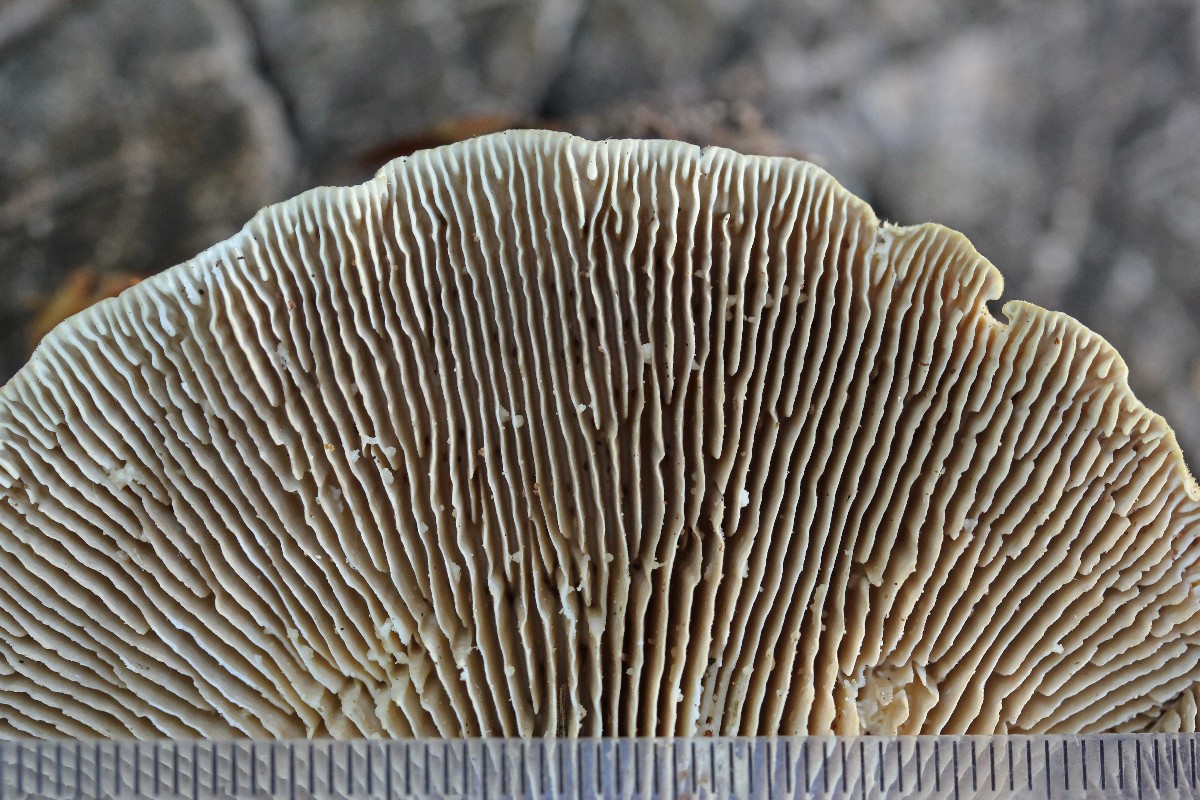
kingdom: Fungi
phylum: Basidiomycota
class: Agaricomycetes
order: Polyporales
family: Polyporaceae
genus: Lenzites
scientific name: Lenzites betulinus
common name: birke-læderporesvamp
